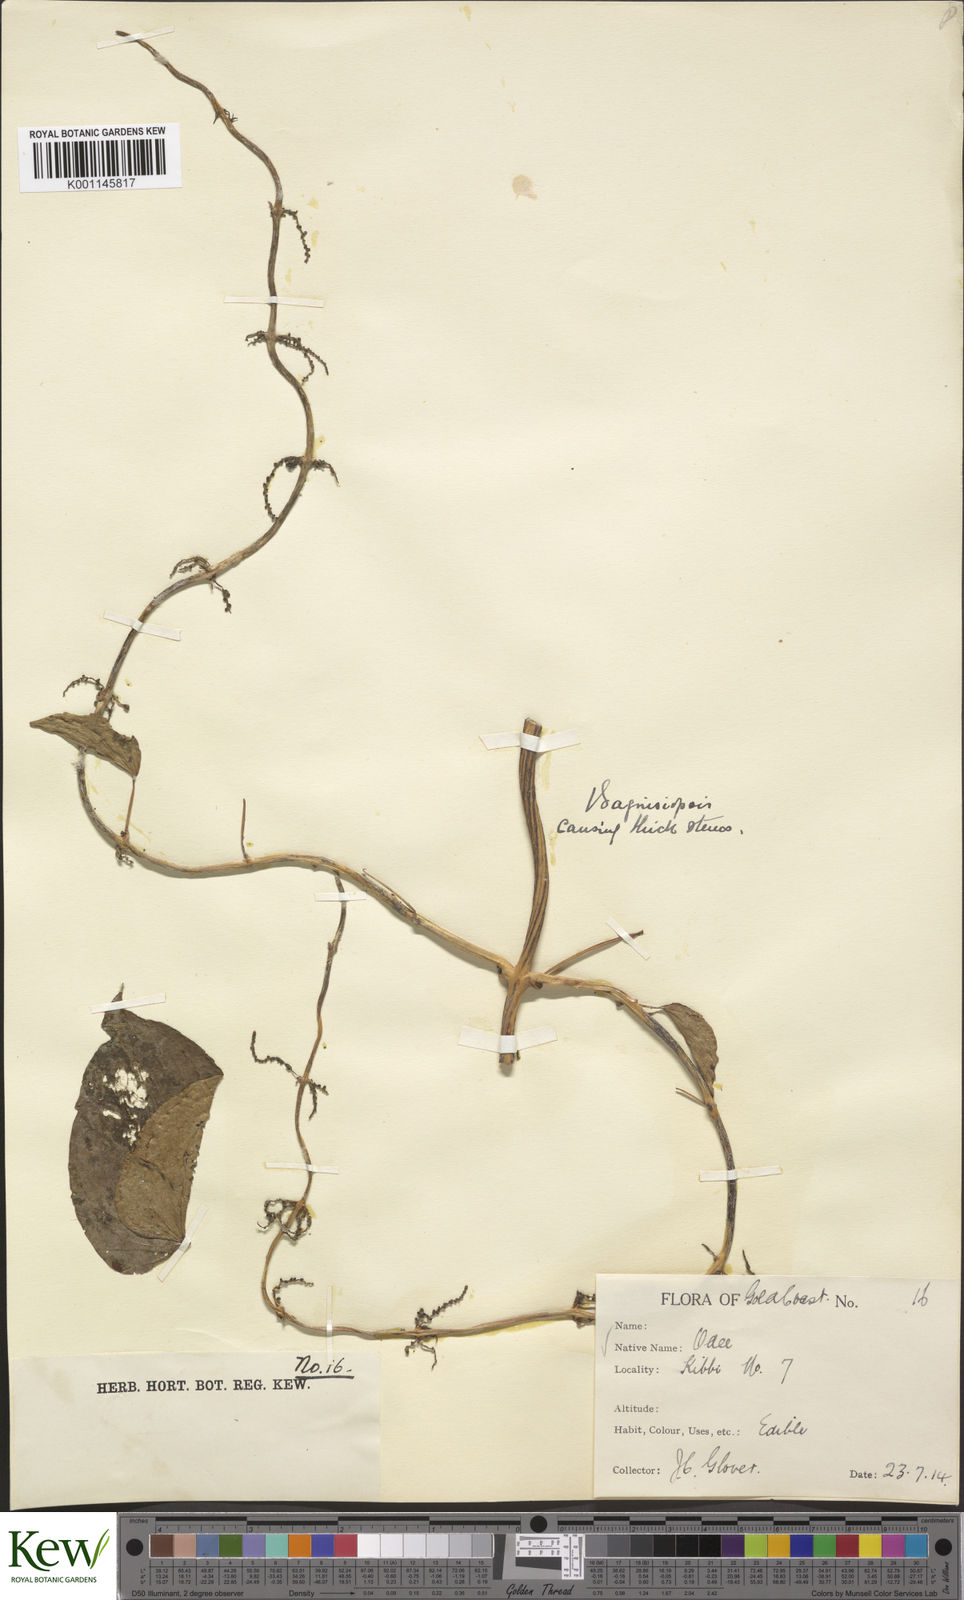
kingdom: Plantae
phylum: Tracheophyta
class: Liliopsida
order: Dioscoreales
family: Dioscoreaceae
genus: Dioscorea
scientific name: Dioscorea cayenensis
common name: Attoto yam
